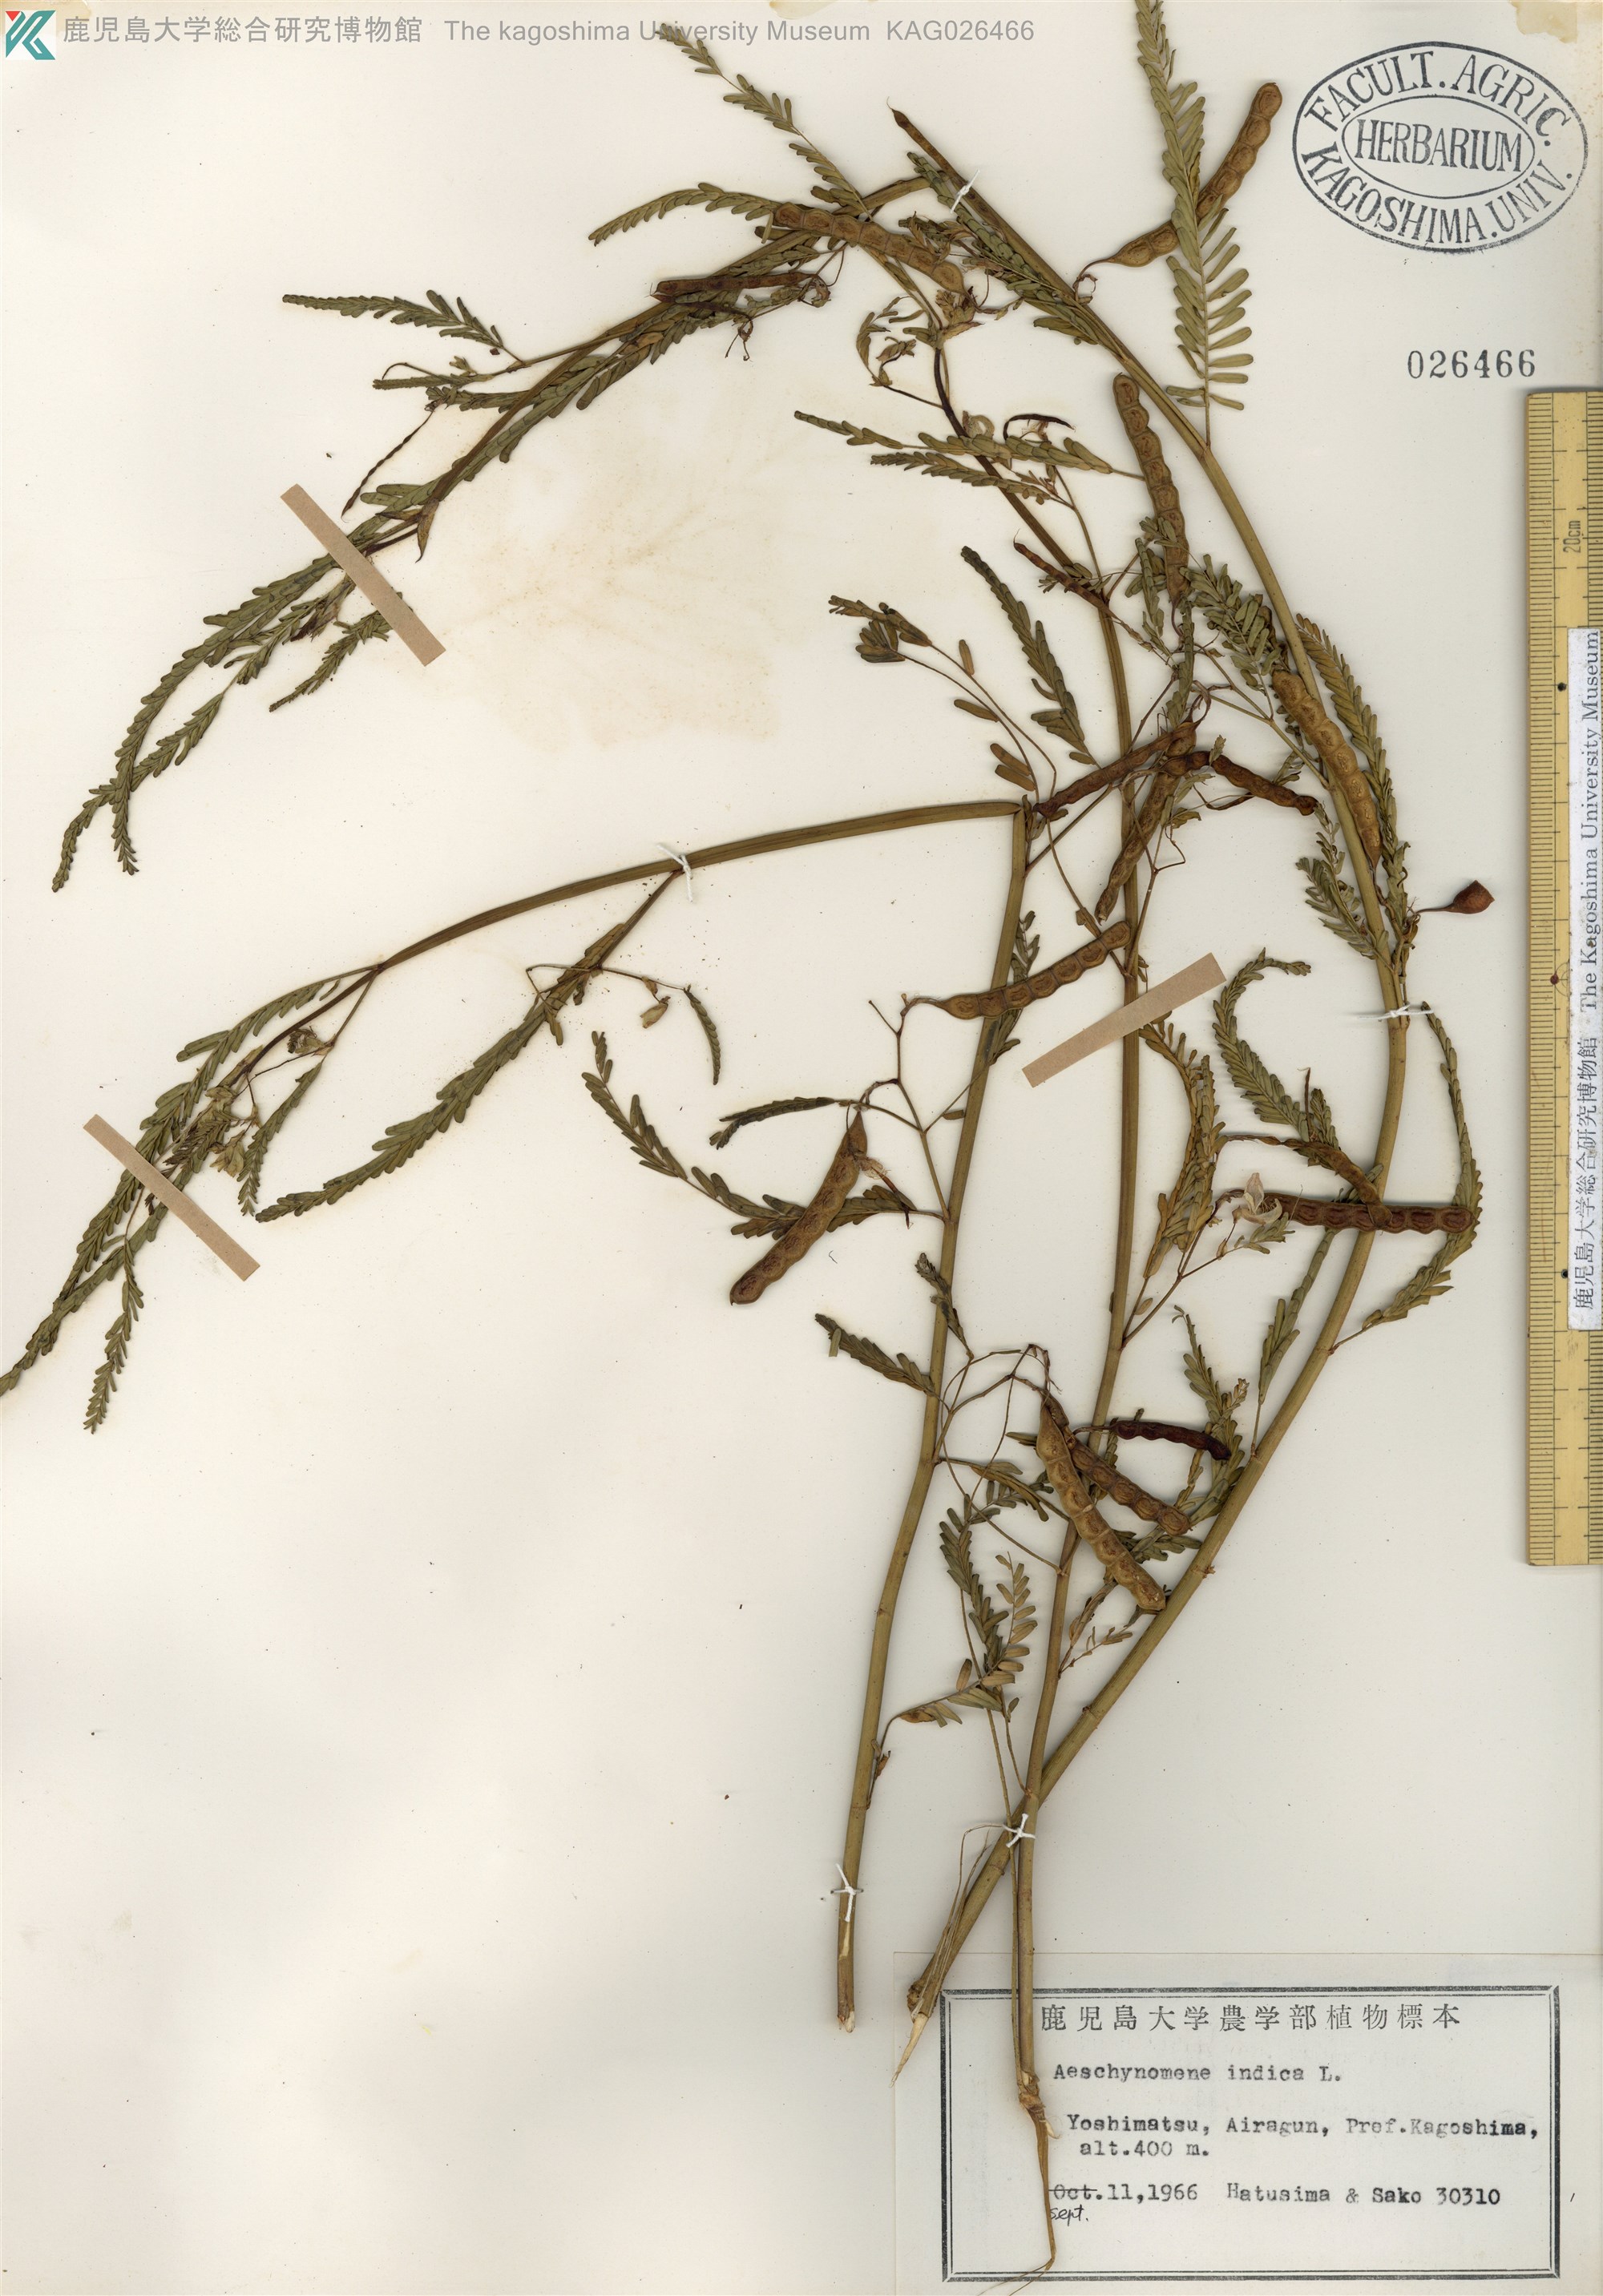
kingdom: Plantae
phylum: Tracheophyta
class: Magnoliopsida
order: Fabales
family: Fabaceae
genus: Aeschynomene
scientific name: Aeschynomene indica
